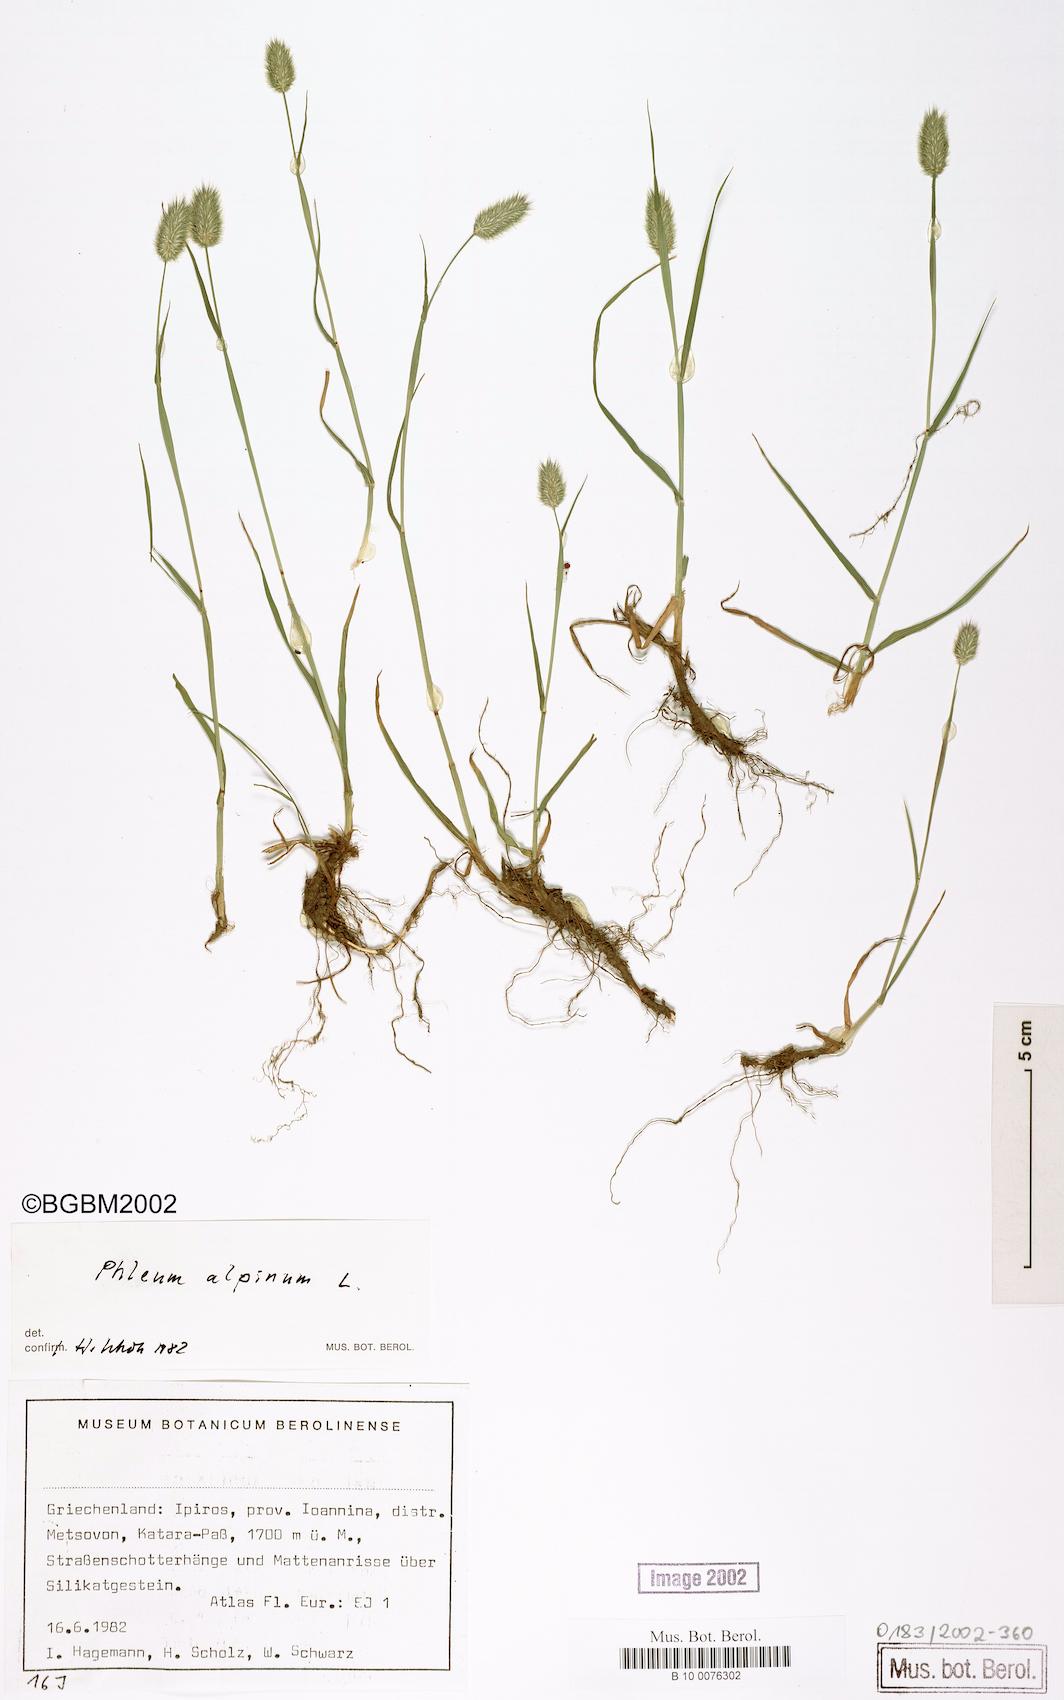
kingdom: Plantae
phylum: Tracheophyta
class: Liliopsida
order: Poales
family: Poaceae
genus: Phleum
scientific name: Phleum alpinum
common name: Alpine cat's-tail
